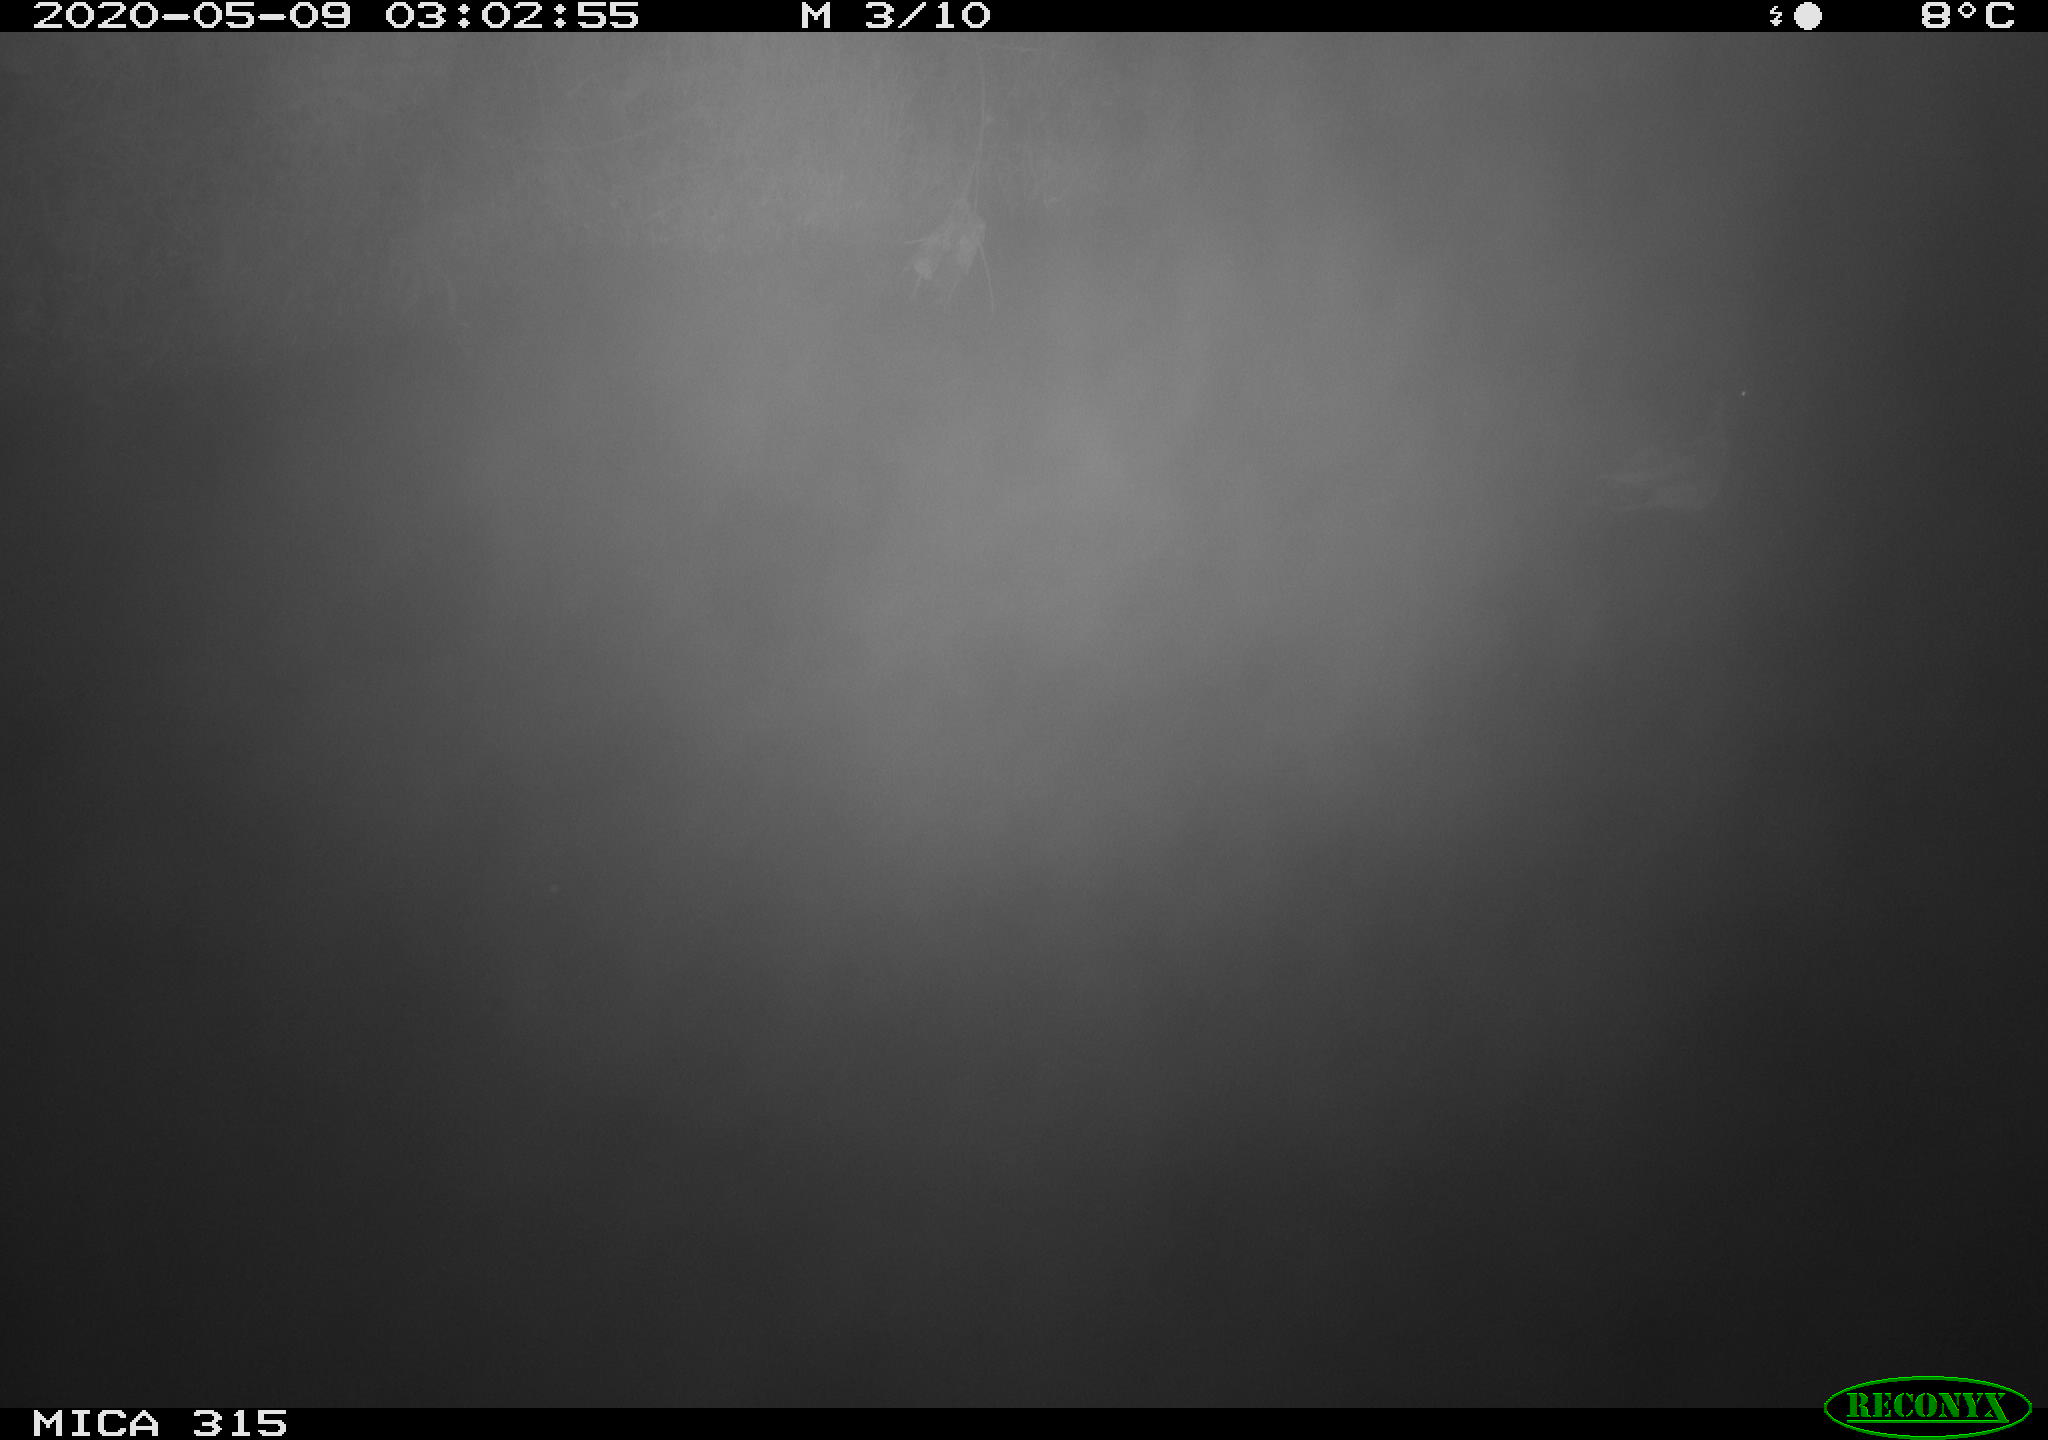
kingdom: Animalia
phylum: Chordata
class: Aves
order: Anseriformes
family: Anatidae
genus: Anas
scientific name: Anas platyrhynchos
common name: Mallard
